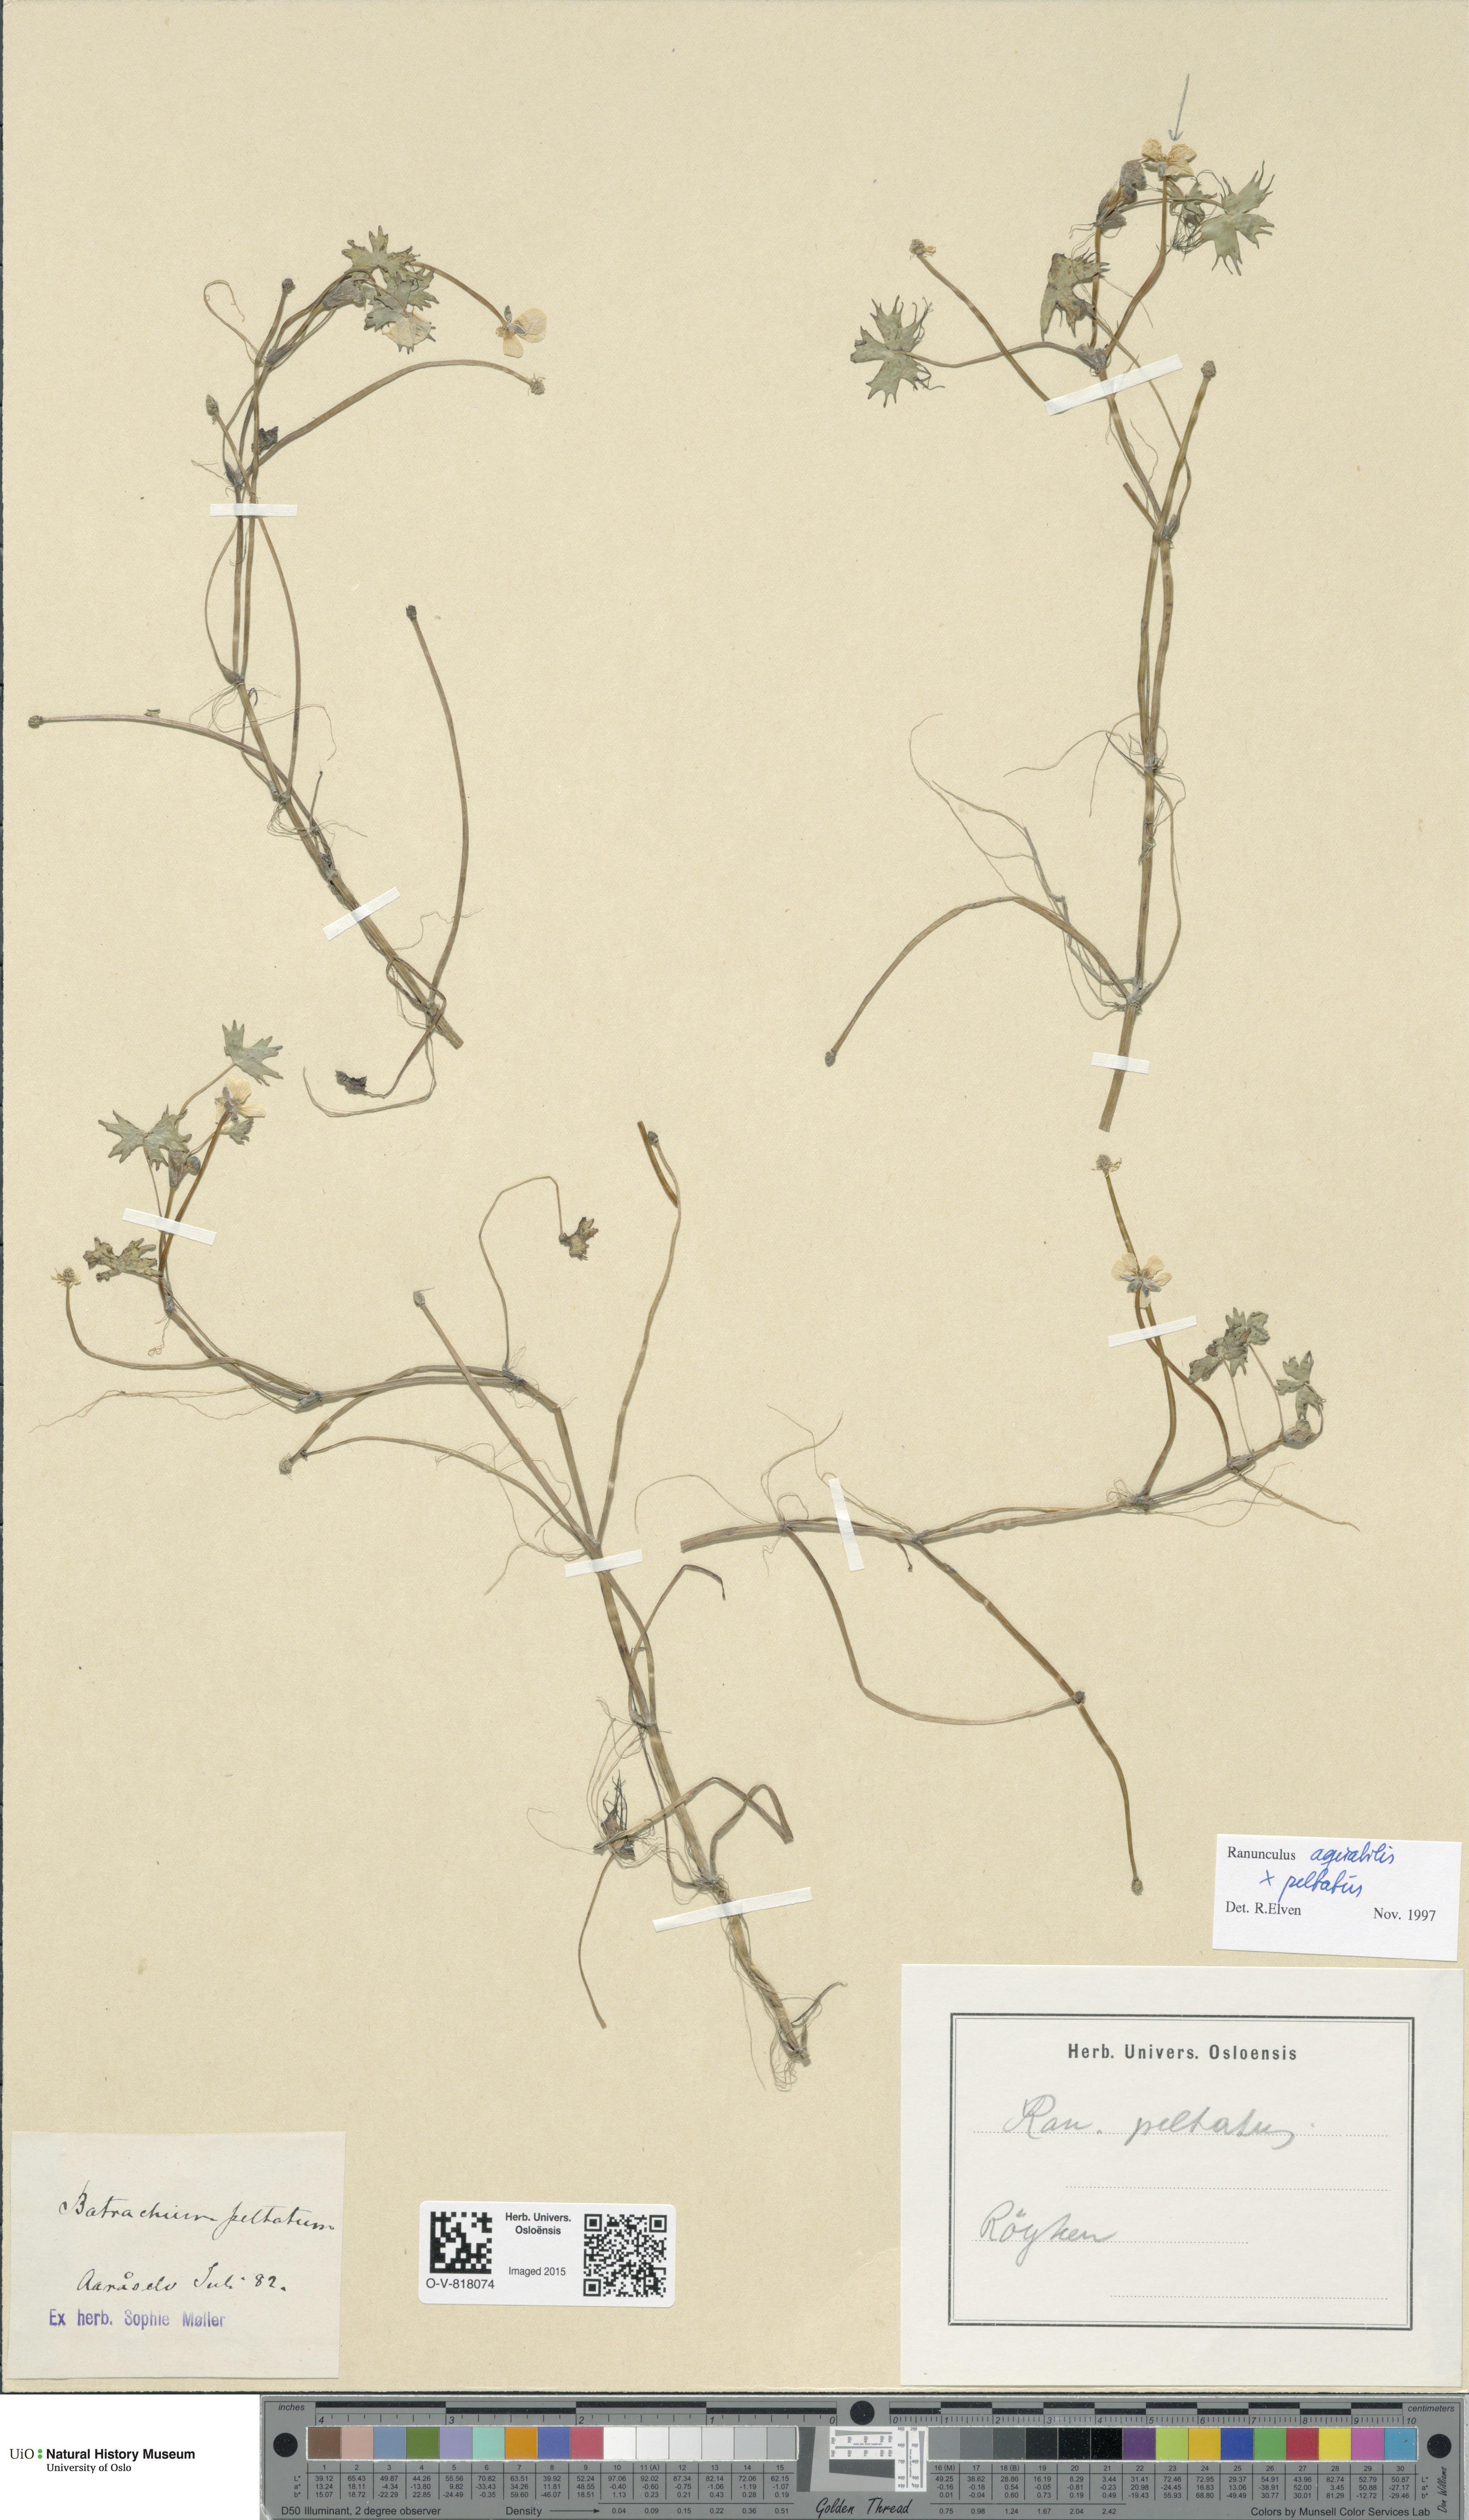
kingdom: Plantae
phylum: Tracheophyta
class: Magnoliopsida
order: Ranunculales
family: Ranunculaceae
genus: Ranunculus
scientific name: Ranunculus
